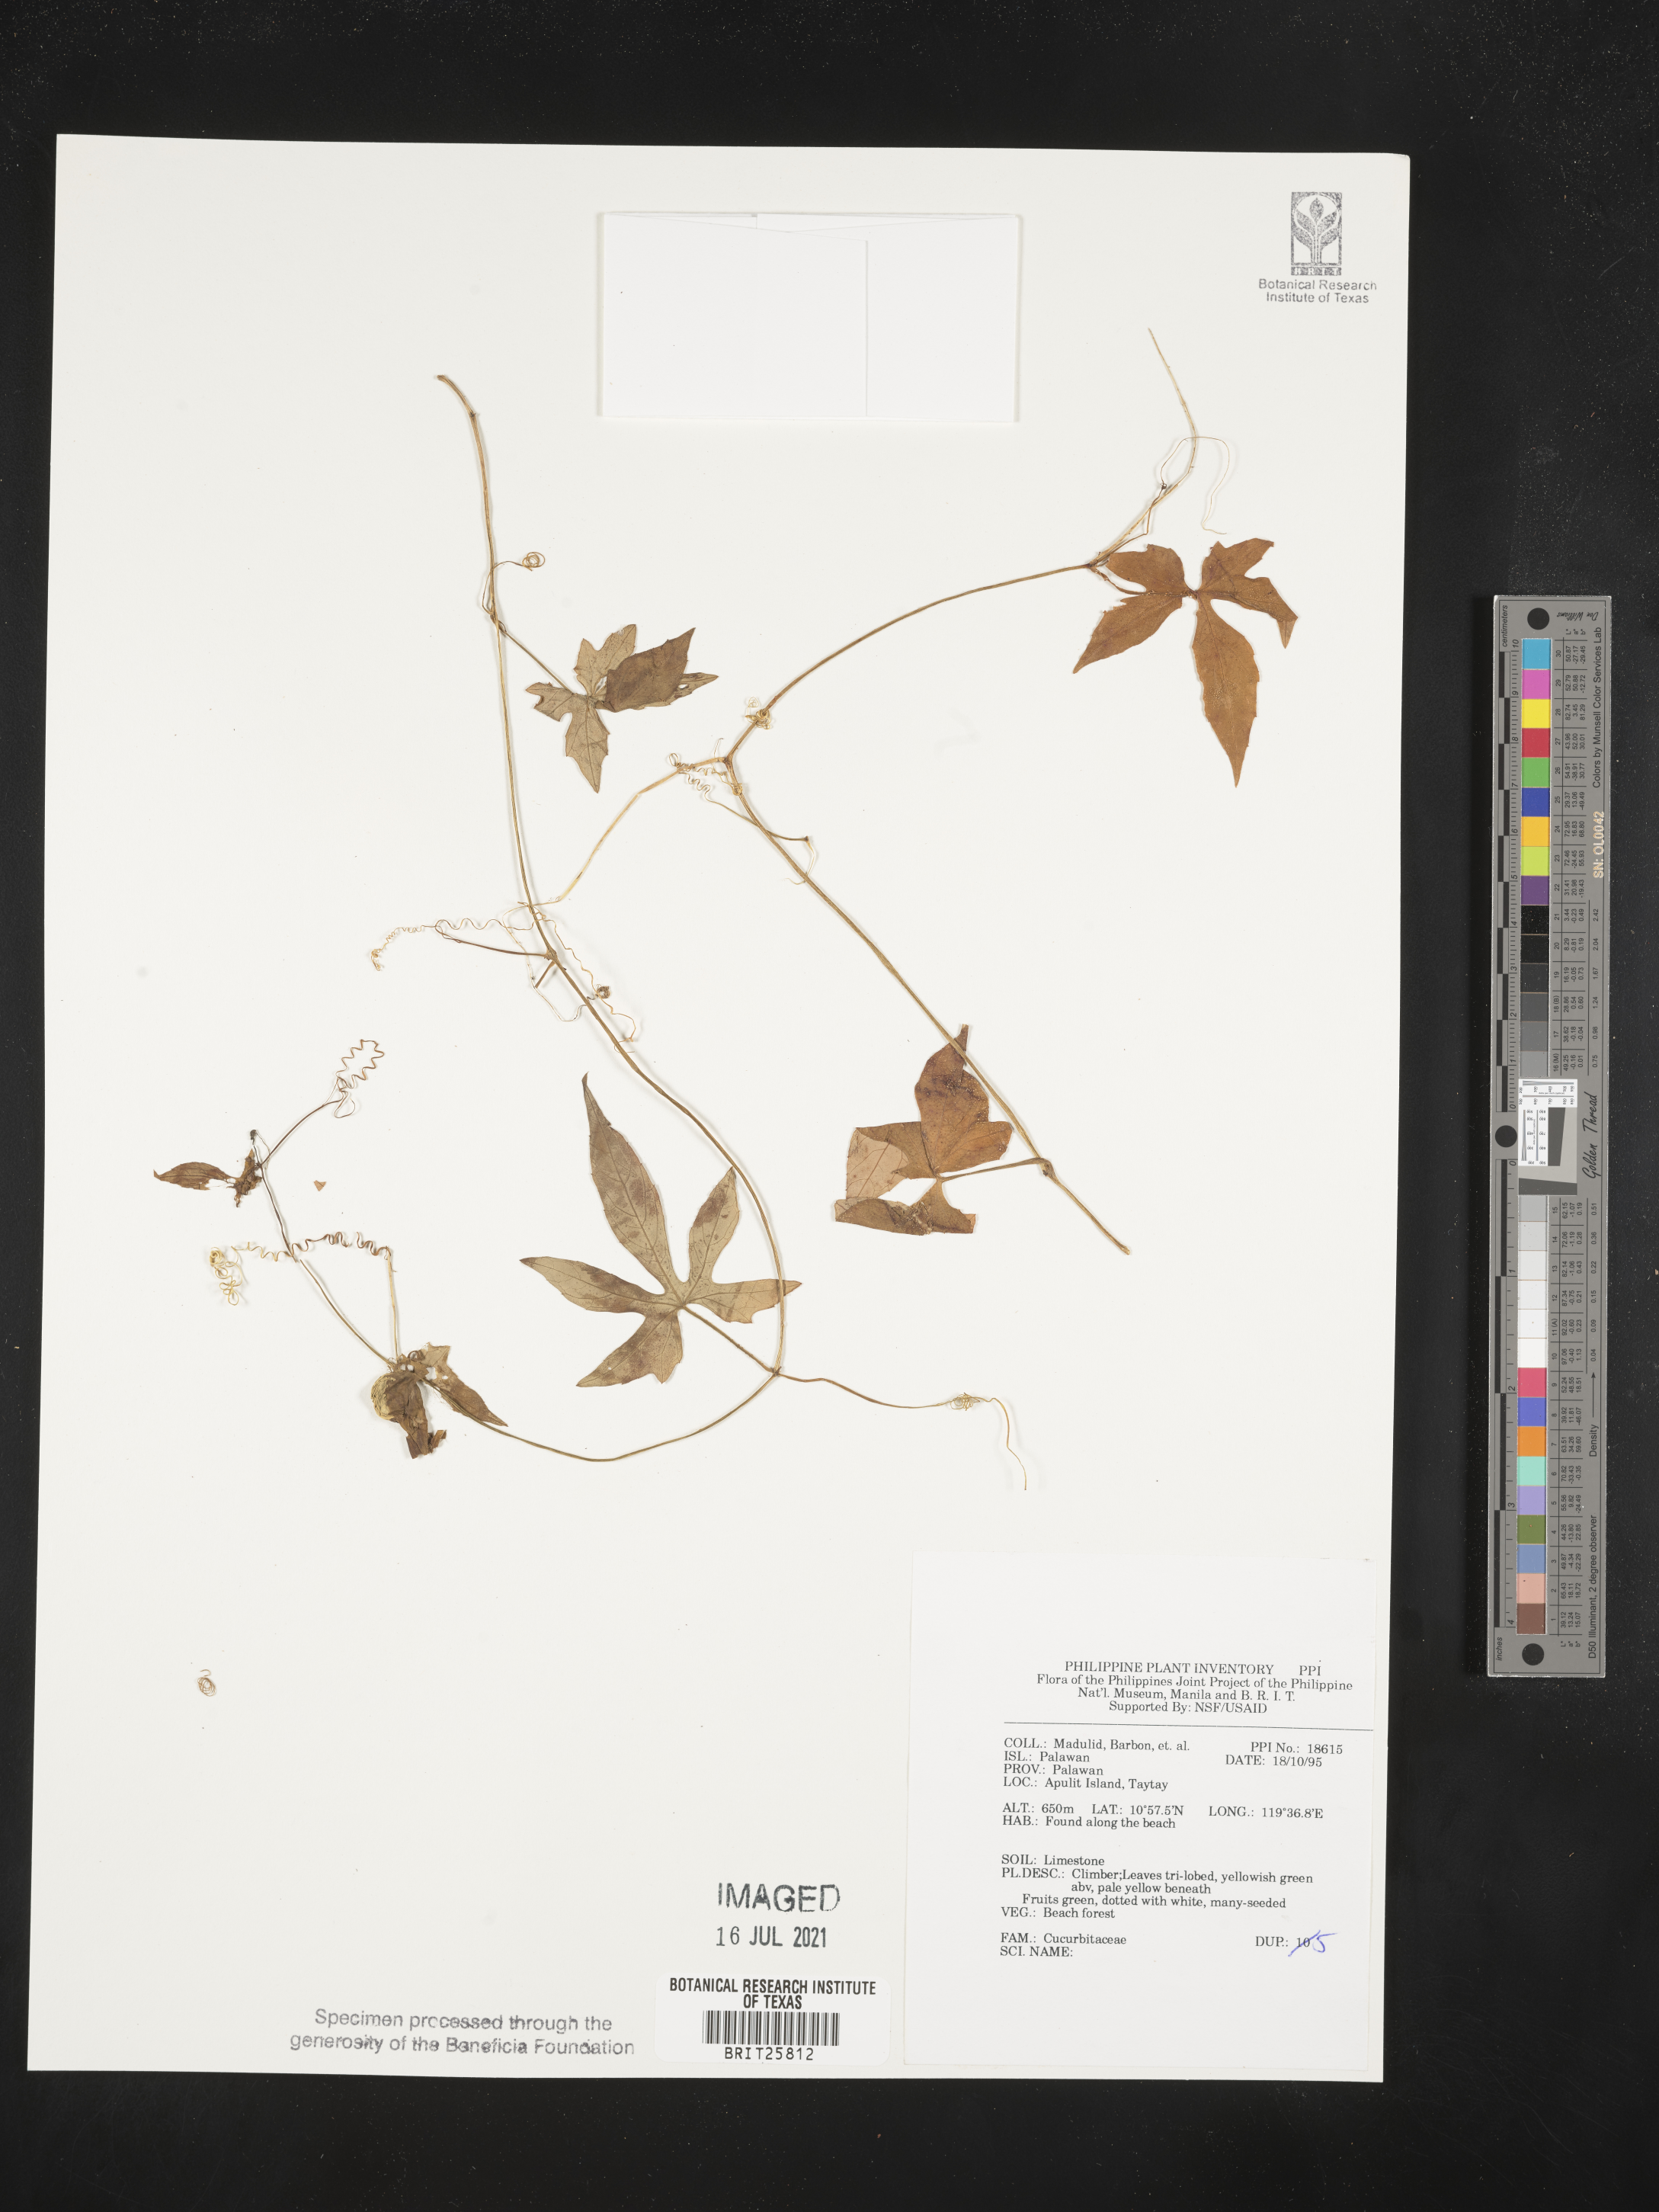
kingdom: Plantae
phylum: Tracheophyta
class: Magnoliopsida
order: Cucurbitales
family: Cucurbitaceae
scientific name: Cucurbitaceae
